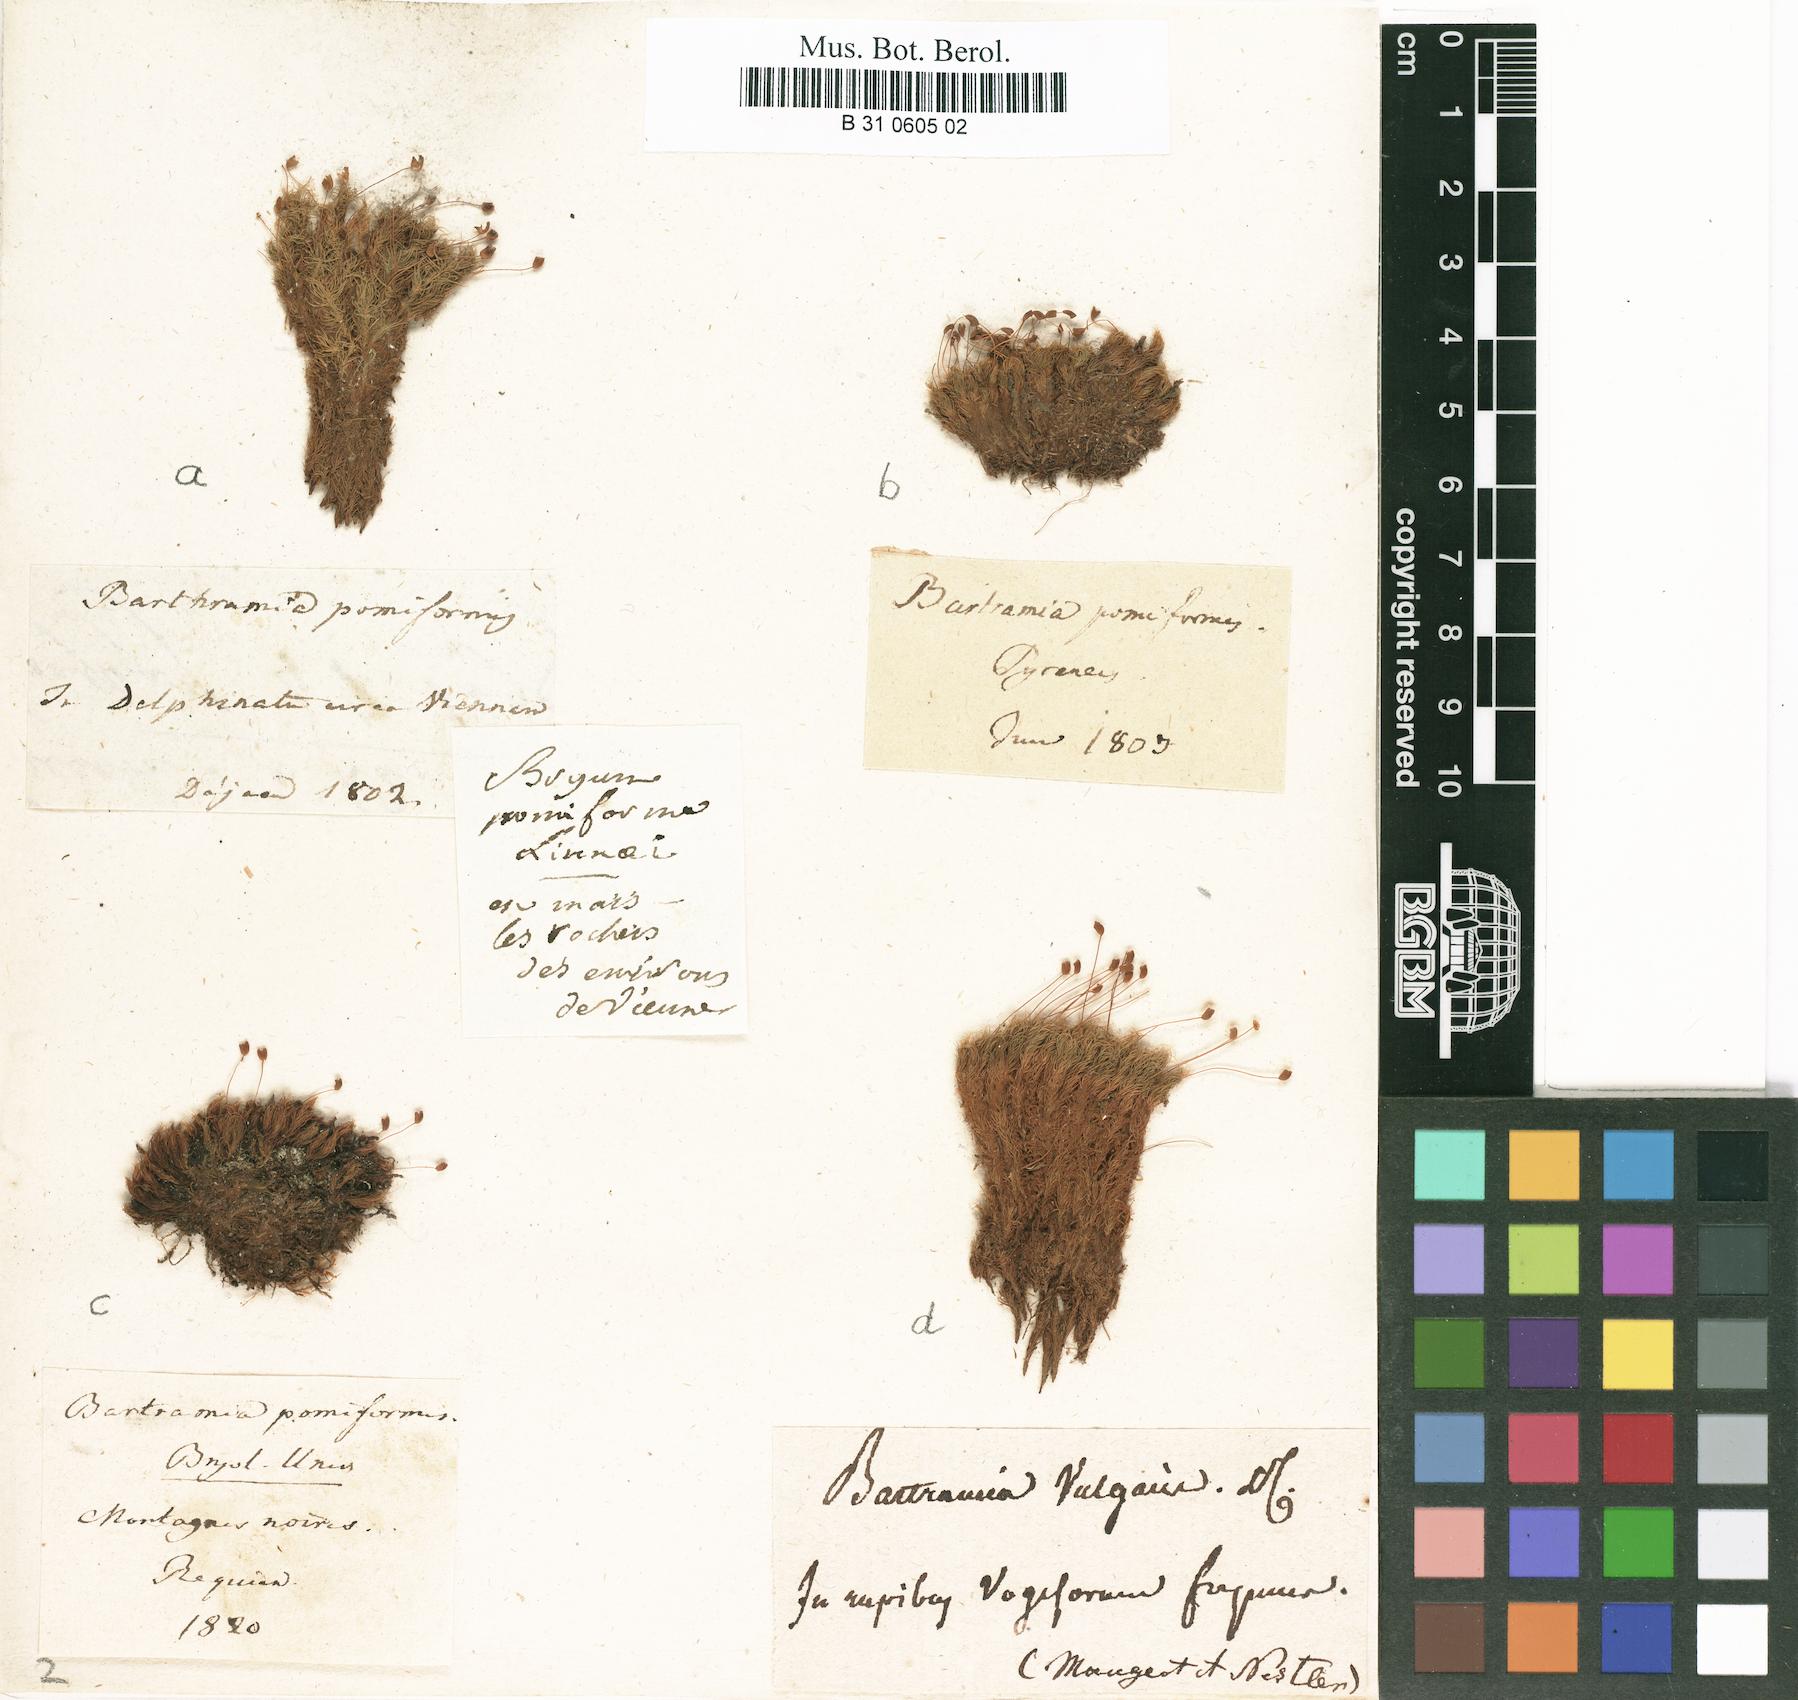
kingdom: Plantae
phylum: Bryophyta
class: Bryopsida
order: Bartramiales
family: Bartramiaceae
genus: Bartramia
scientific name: Bartramia pomiformis
